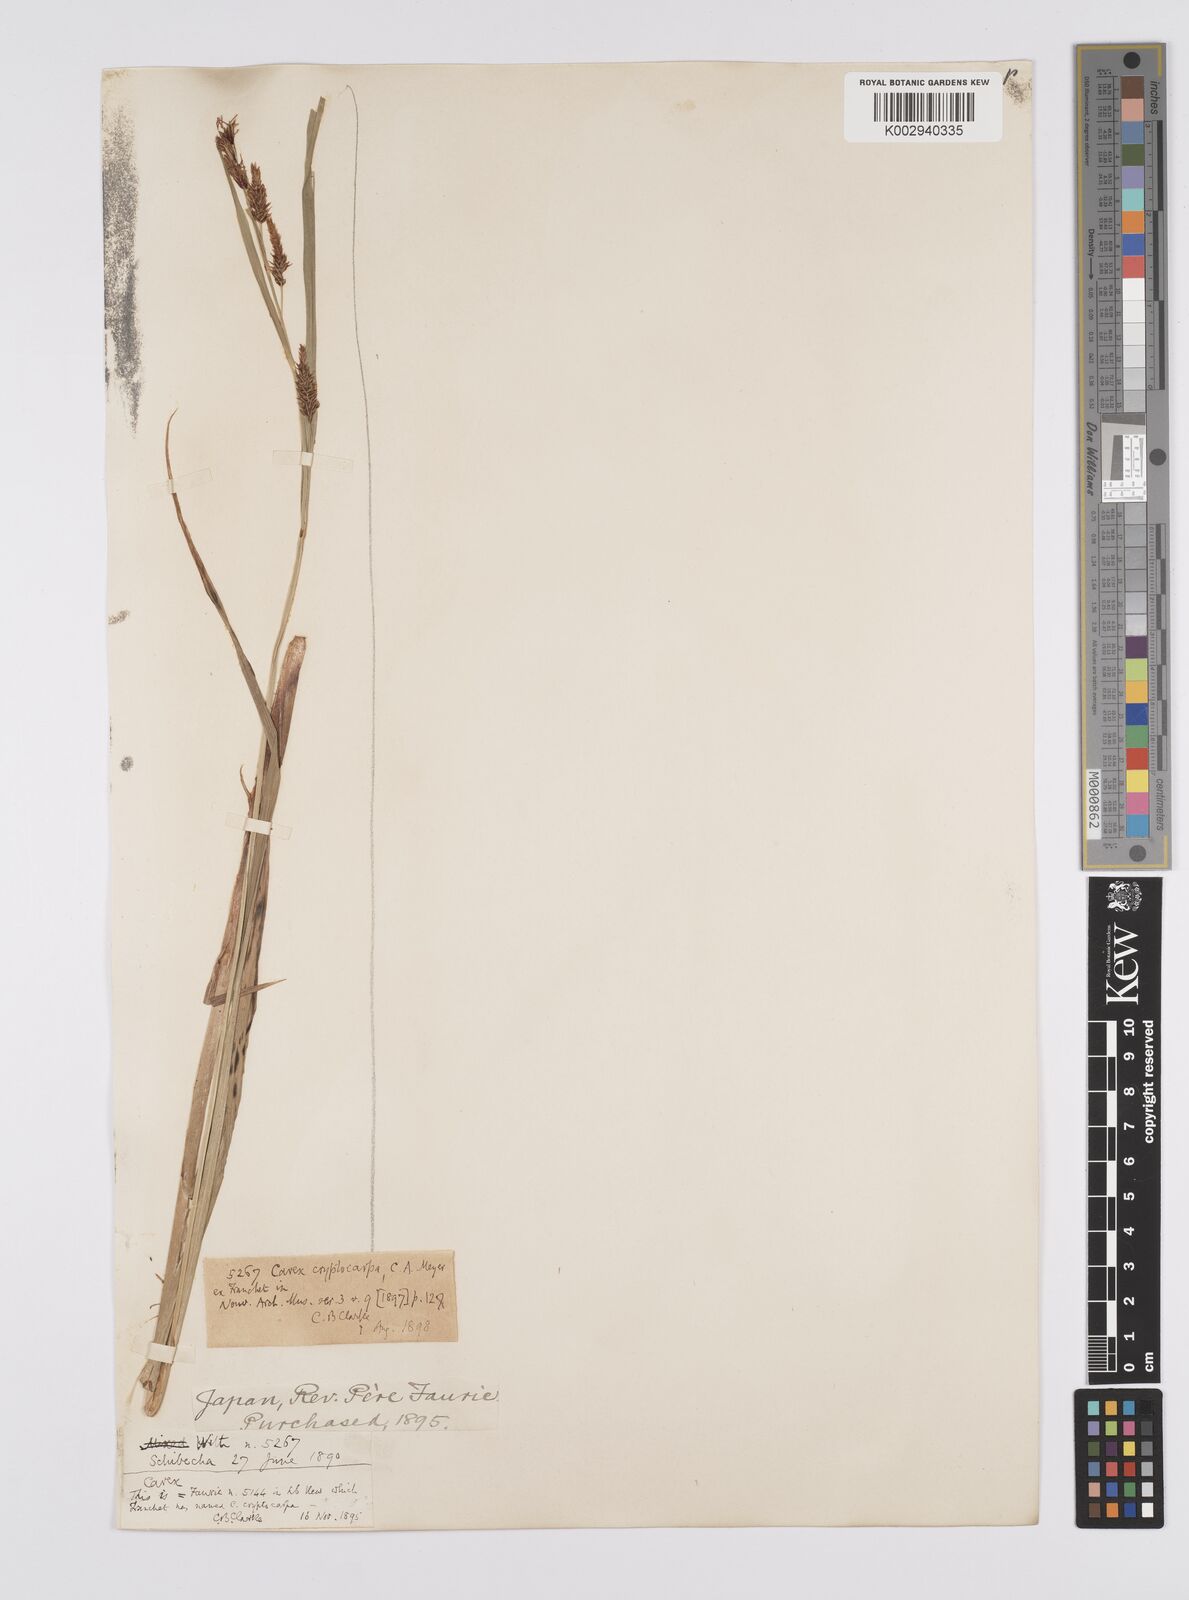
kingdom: Plantae
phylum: Tracheophyta
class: Liliopsida
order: Poales
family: Cyperaceae
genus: Carex
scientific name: Carex lyngbyei
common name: Lyngbye's sedge
